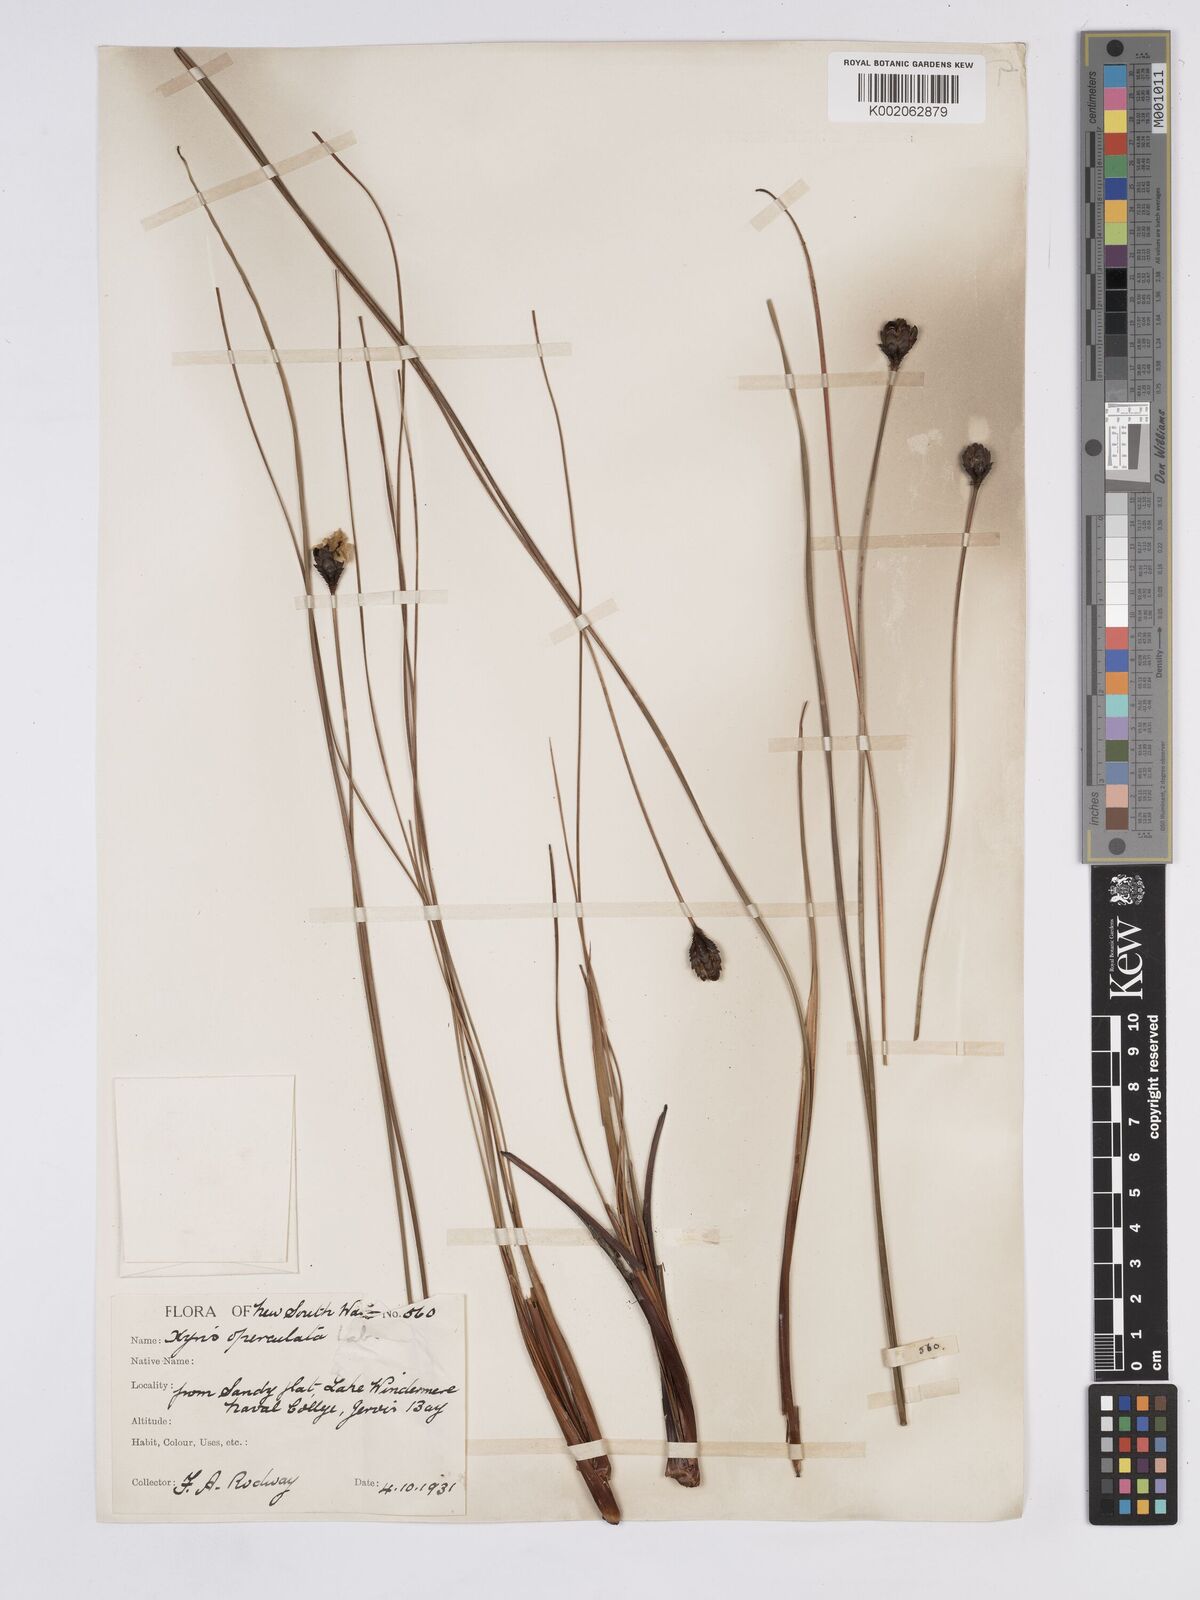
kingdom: Plantae
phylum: Tracheophyta
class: Liliopsida
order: Poales
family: Xyridaceae
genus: Xyris
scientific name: Xyris operculata
